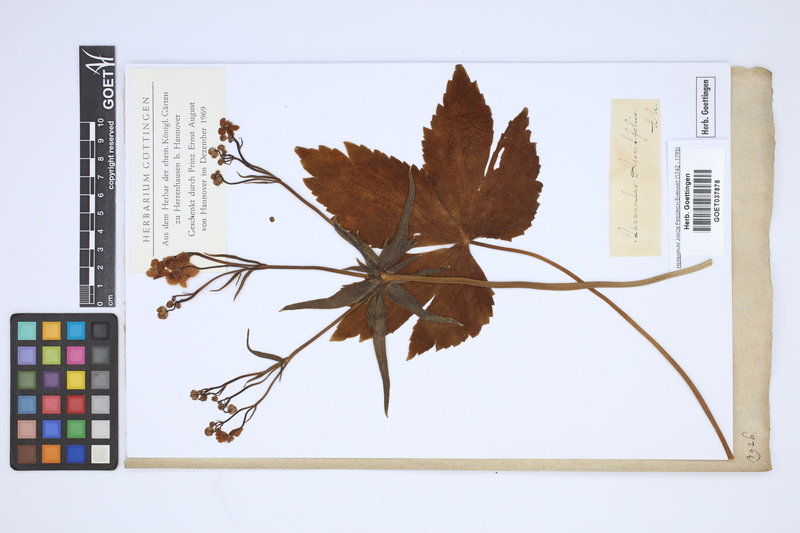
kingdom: Plantae
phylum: Tracheophyta
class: Magnoliopsida
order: Ranunculales
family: Ranunculaceae
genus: Ranunculus
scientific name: Ranunculus aconitifolius
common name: Aconite-leaved buttercup
